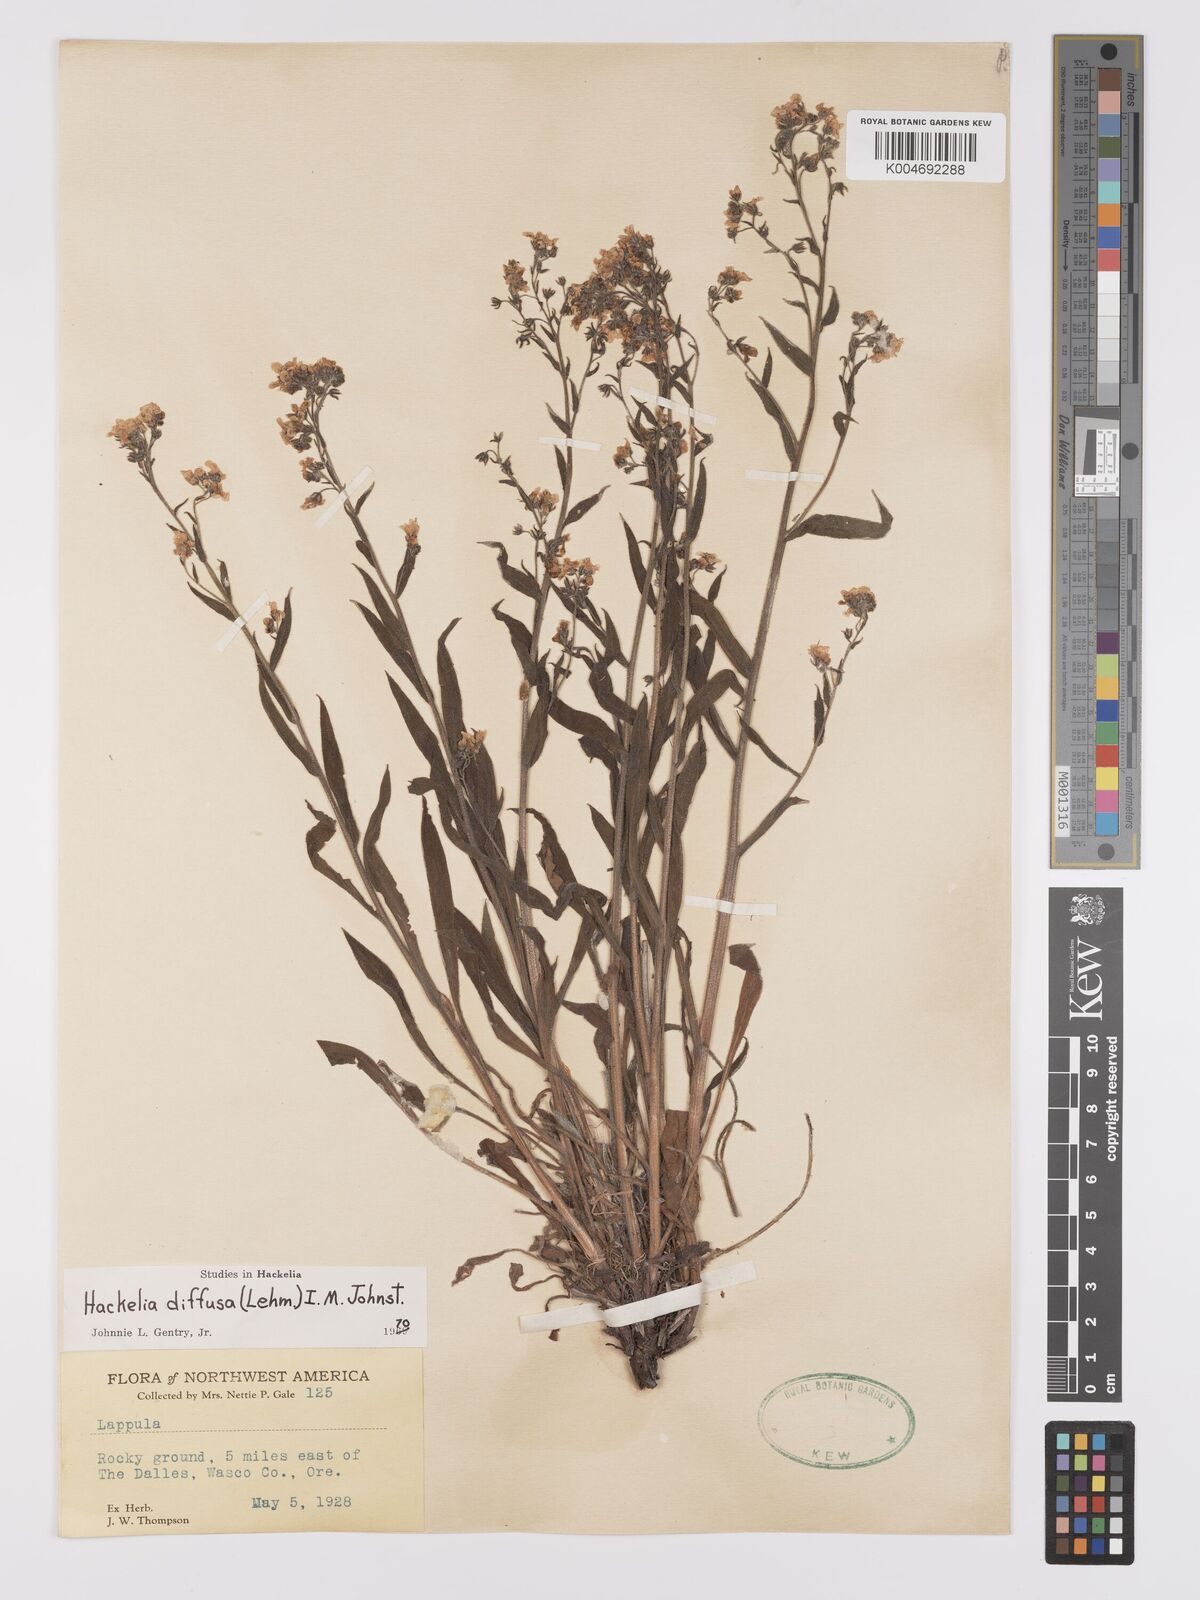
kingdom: Plantae
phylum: Tracheophyta
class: Magnoliopsida
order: Boraginales
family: Boraginaceae
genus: Hackelia
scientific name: Hackelia diffusa
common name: Spreading hackelia
